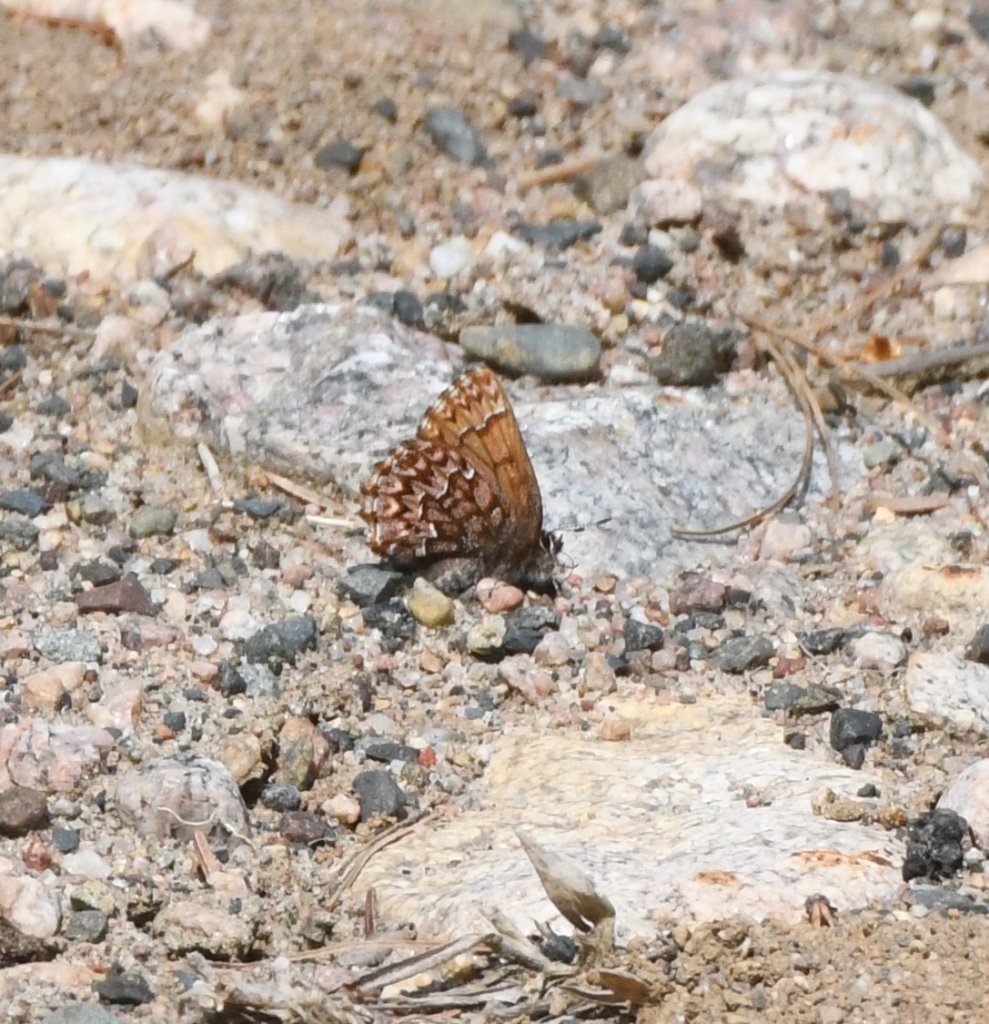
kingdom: Animalia
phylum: Arthropoda
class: Insecta
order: Lepidoptera
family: Lycaenidae
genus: Incisalia
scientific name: Incisalia eryphon
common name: Western Pine Elfin
